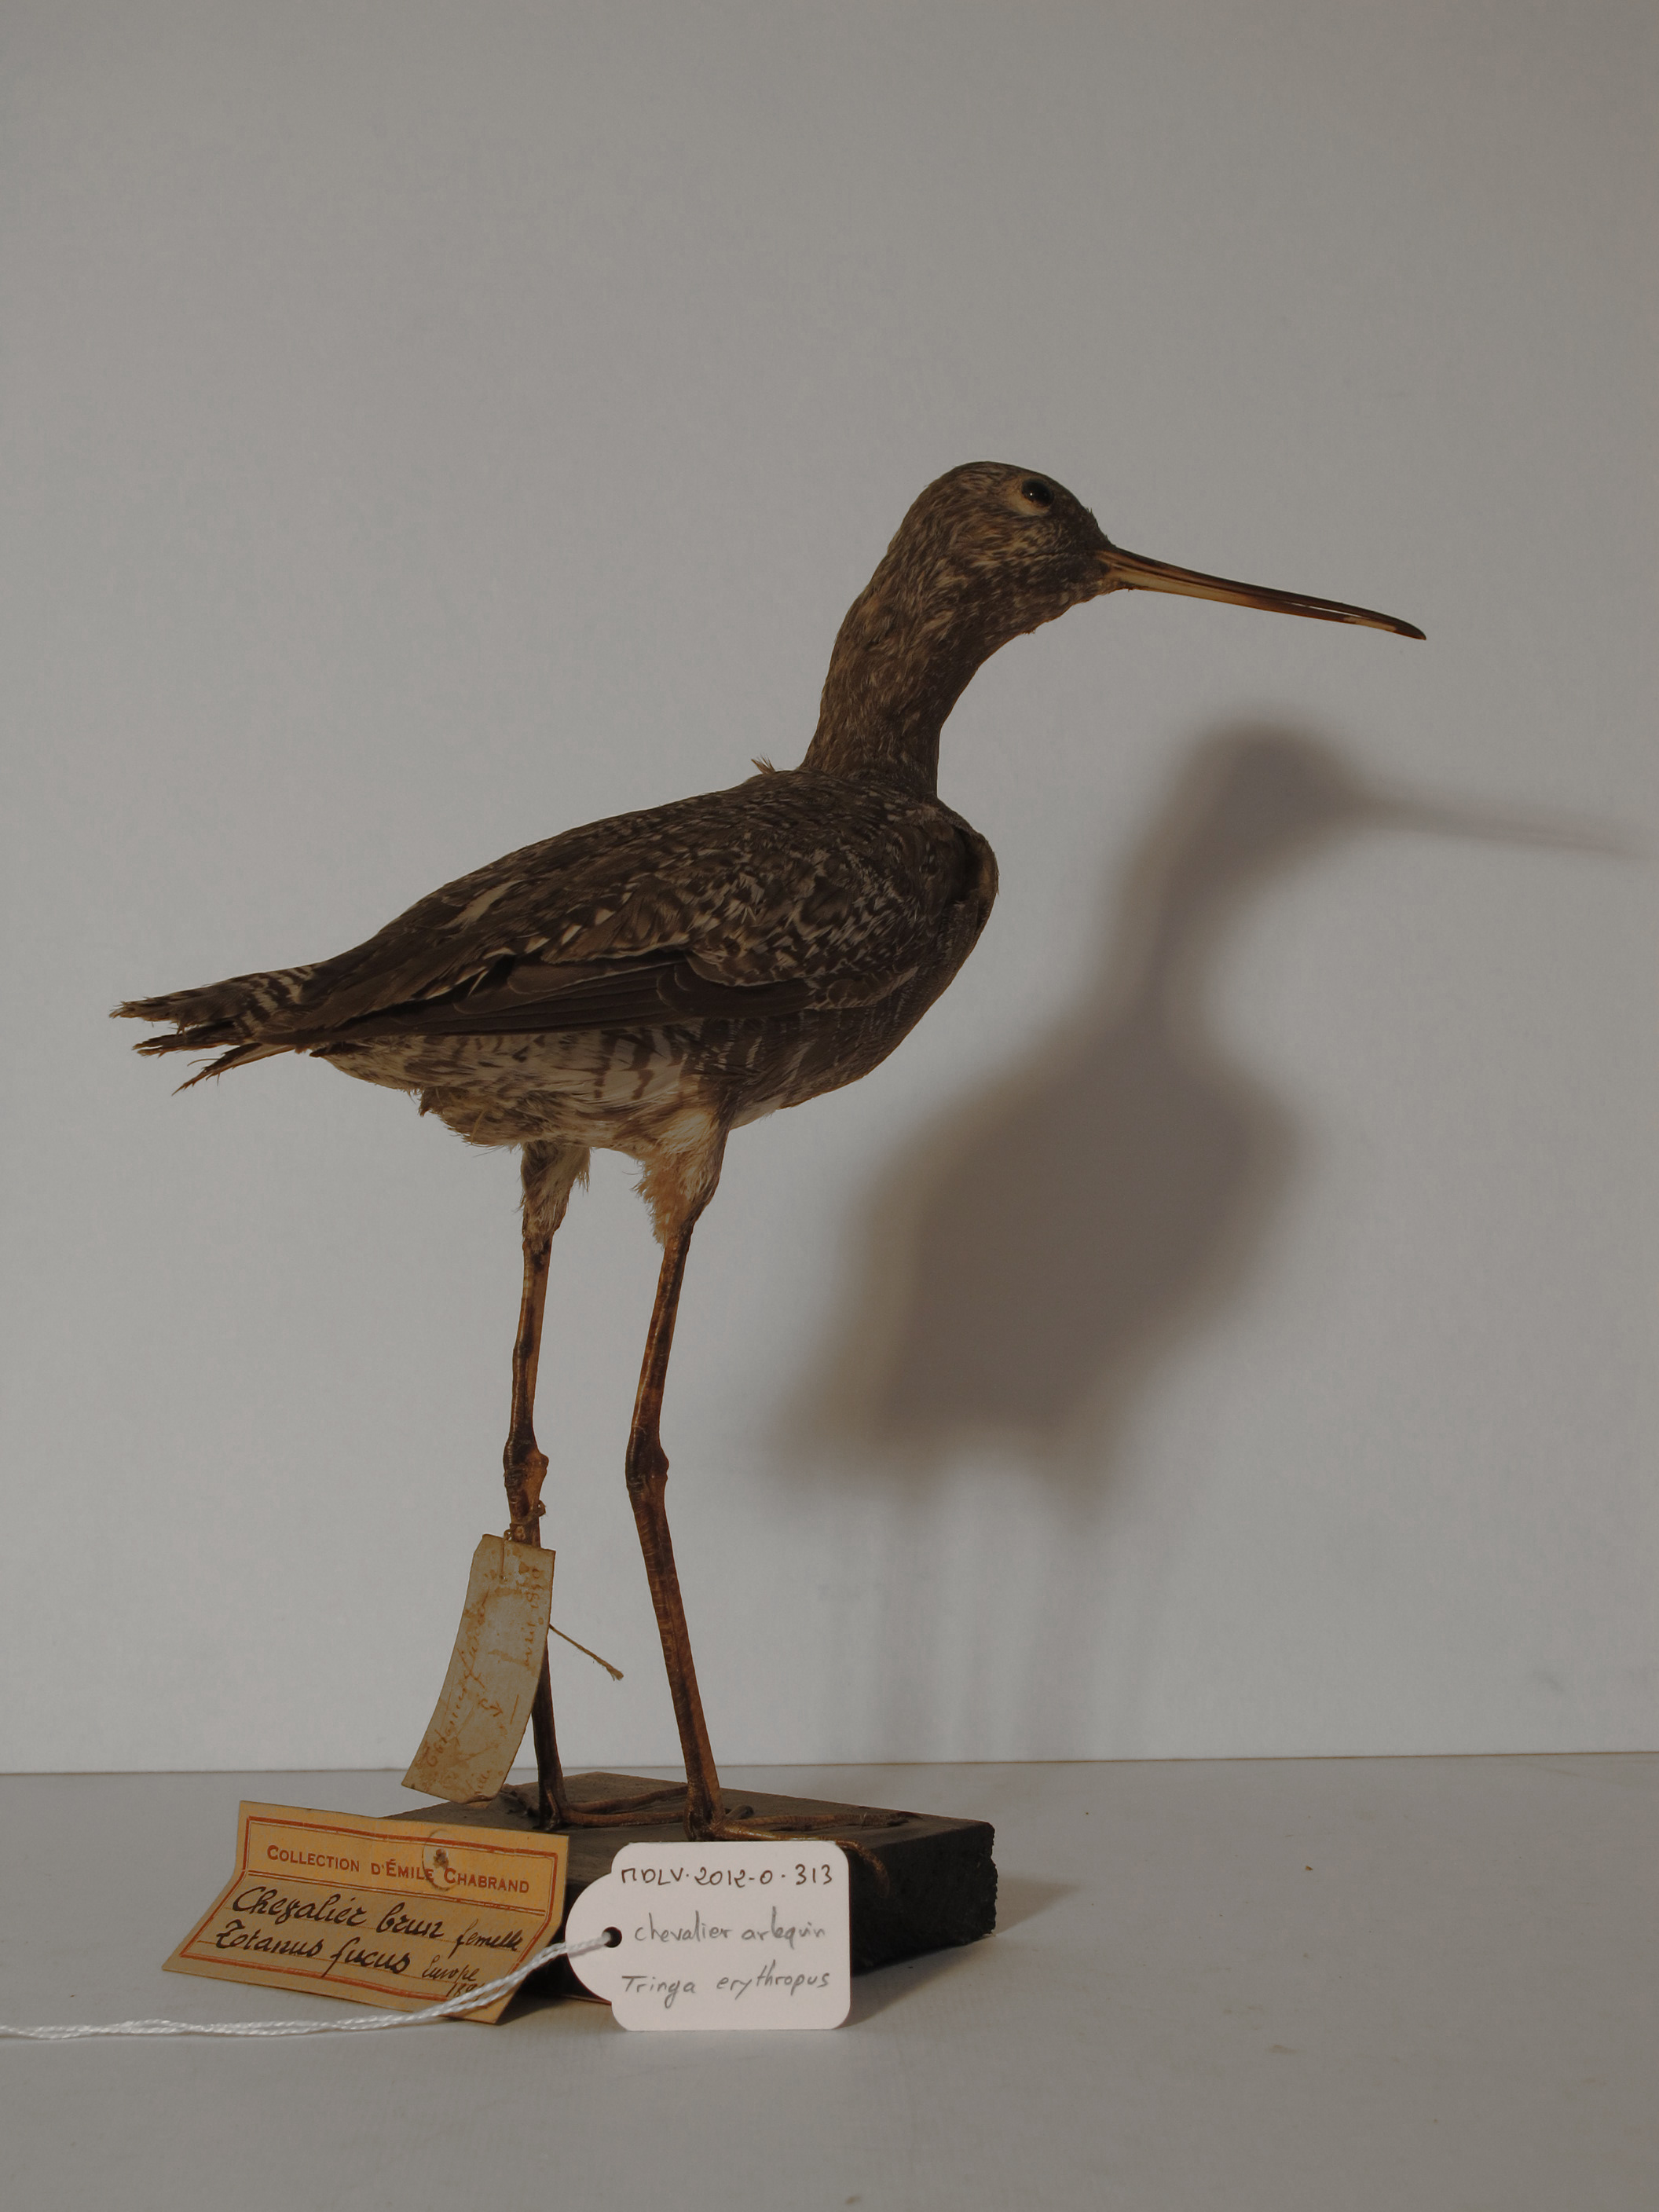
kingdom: Animalia
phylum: Chordata
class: Aves
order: Charadriiformes
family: Scolopacidae
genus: Tringa
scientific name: Tringa erythropus
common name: Spotted Redshank
